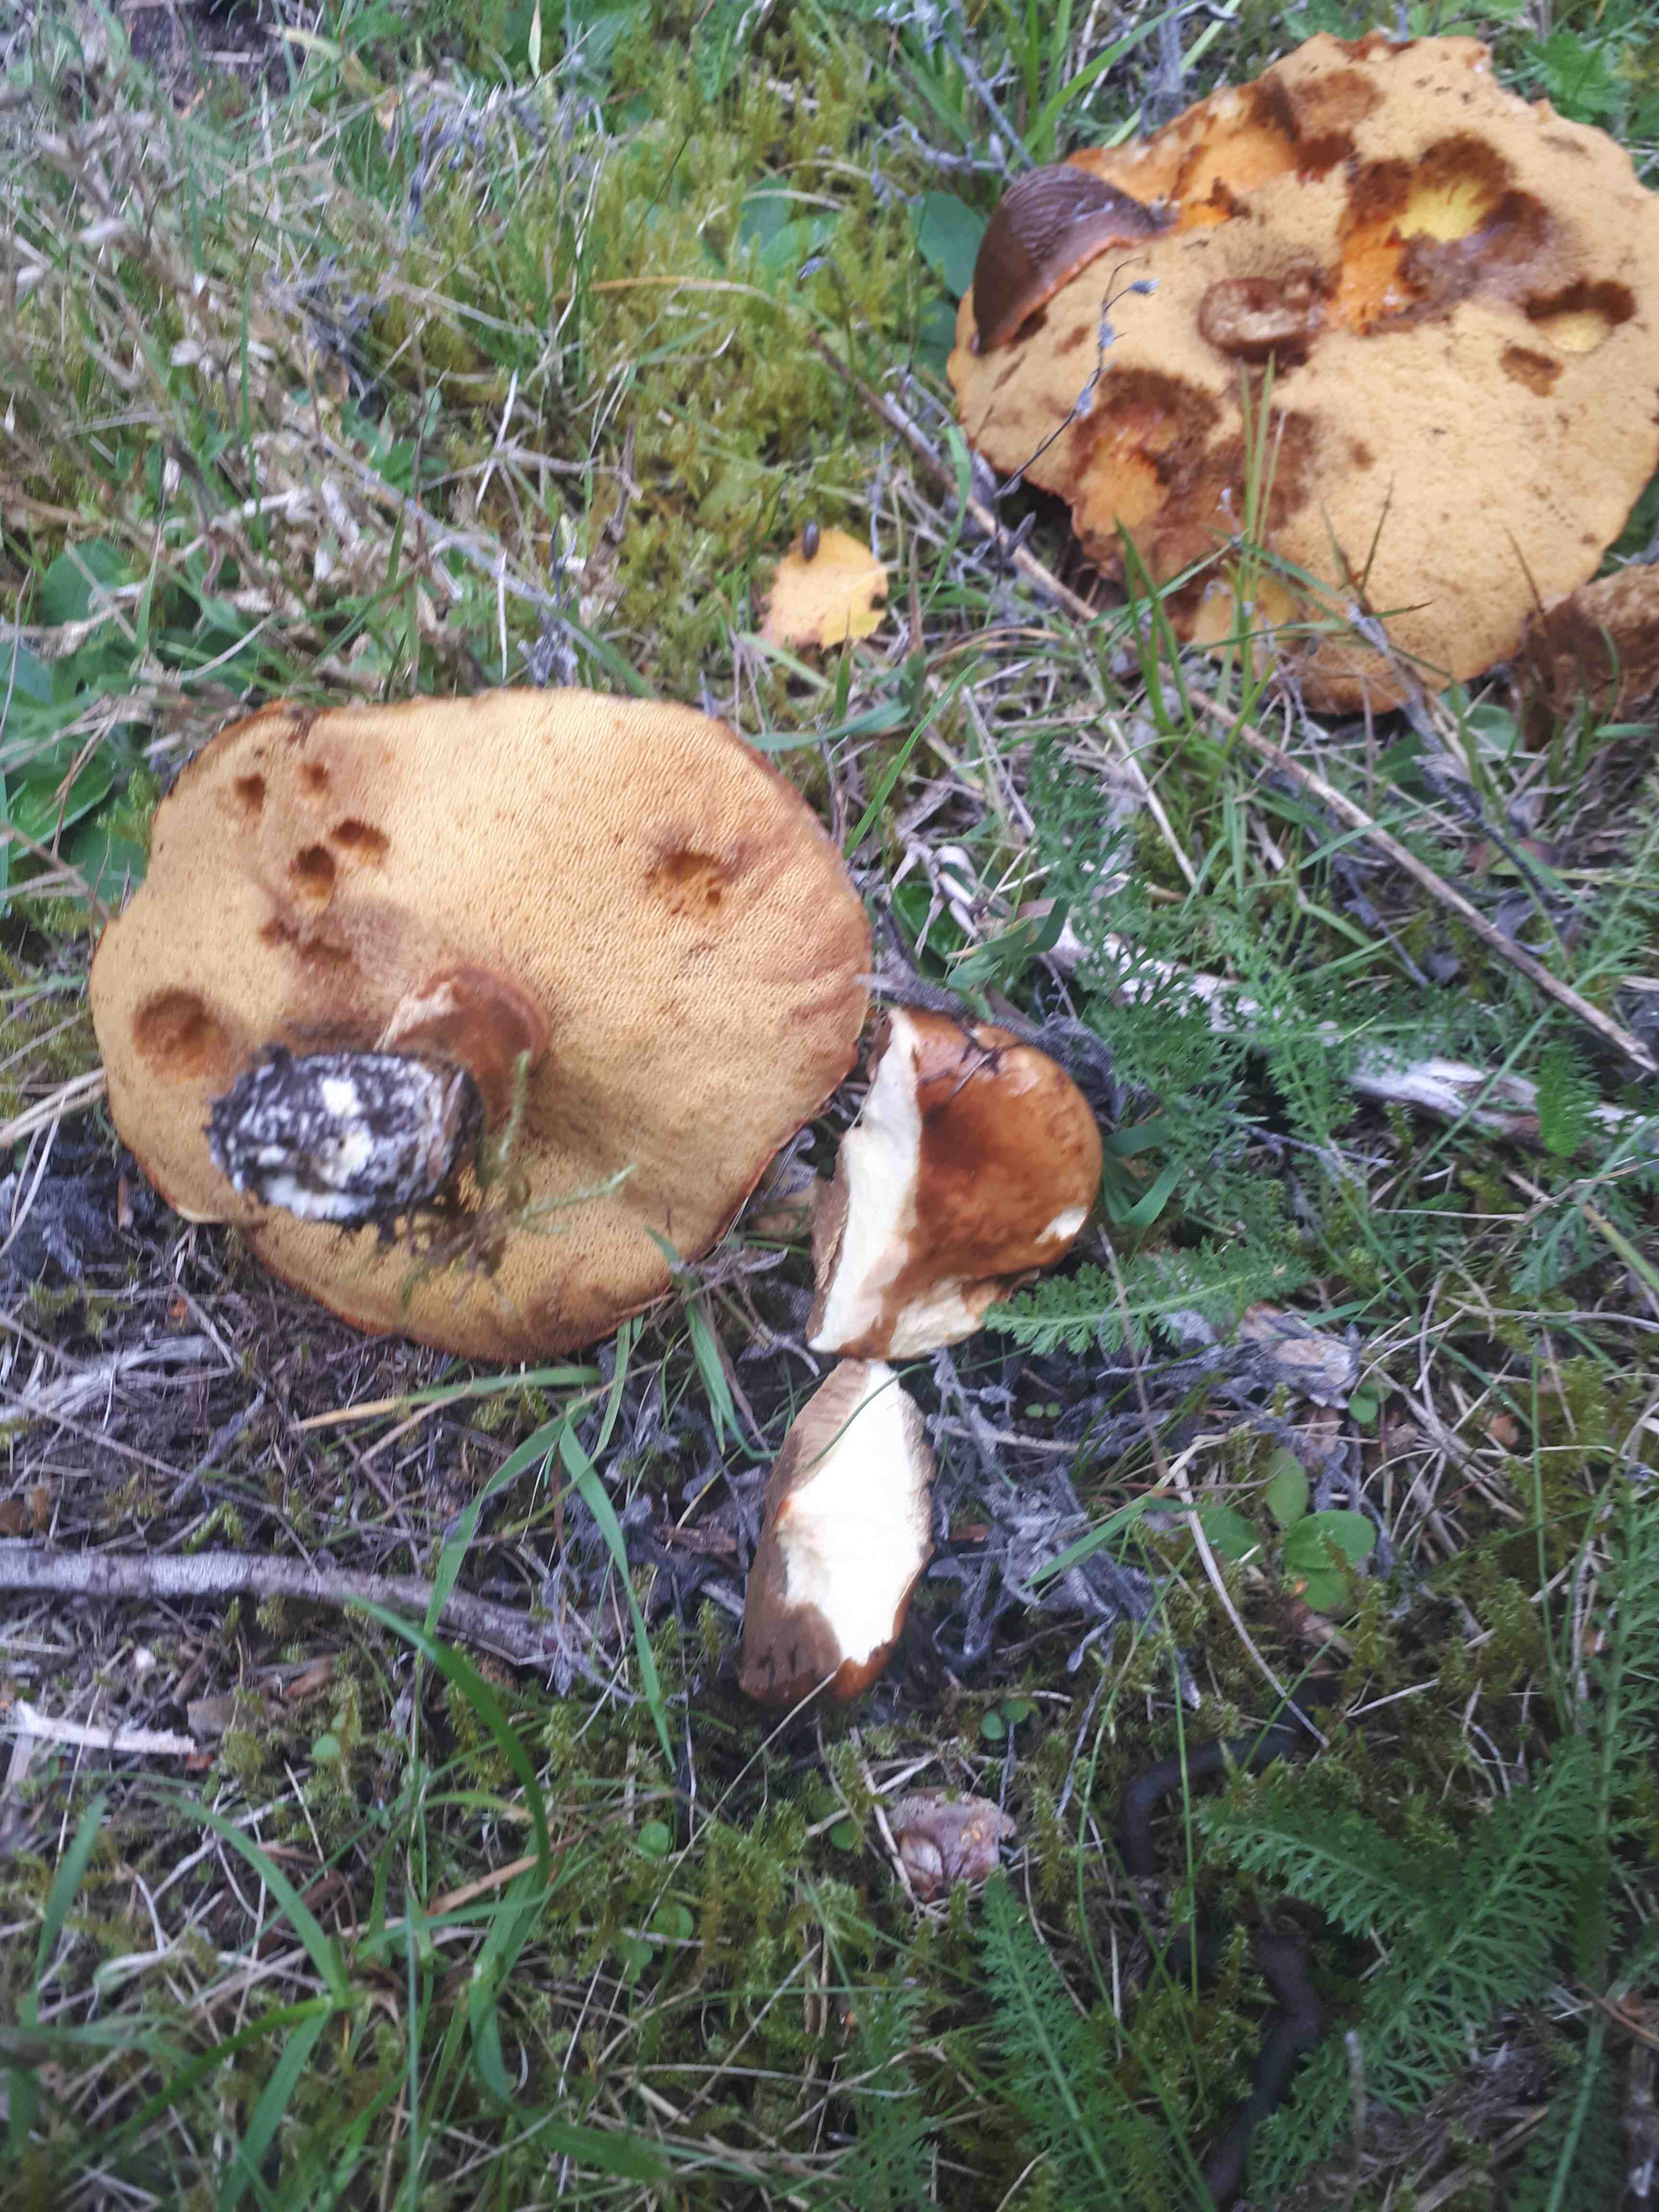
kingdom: Fungi
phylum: Basidiomycota
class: Agaricomycetes
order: Boletales
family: Suillaceae
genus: Suillus
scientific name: Suillus grevillei
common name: lærke-slimrørhat
